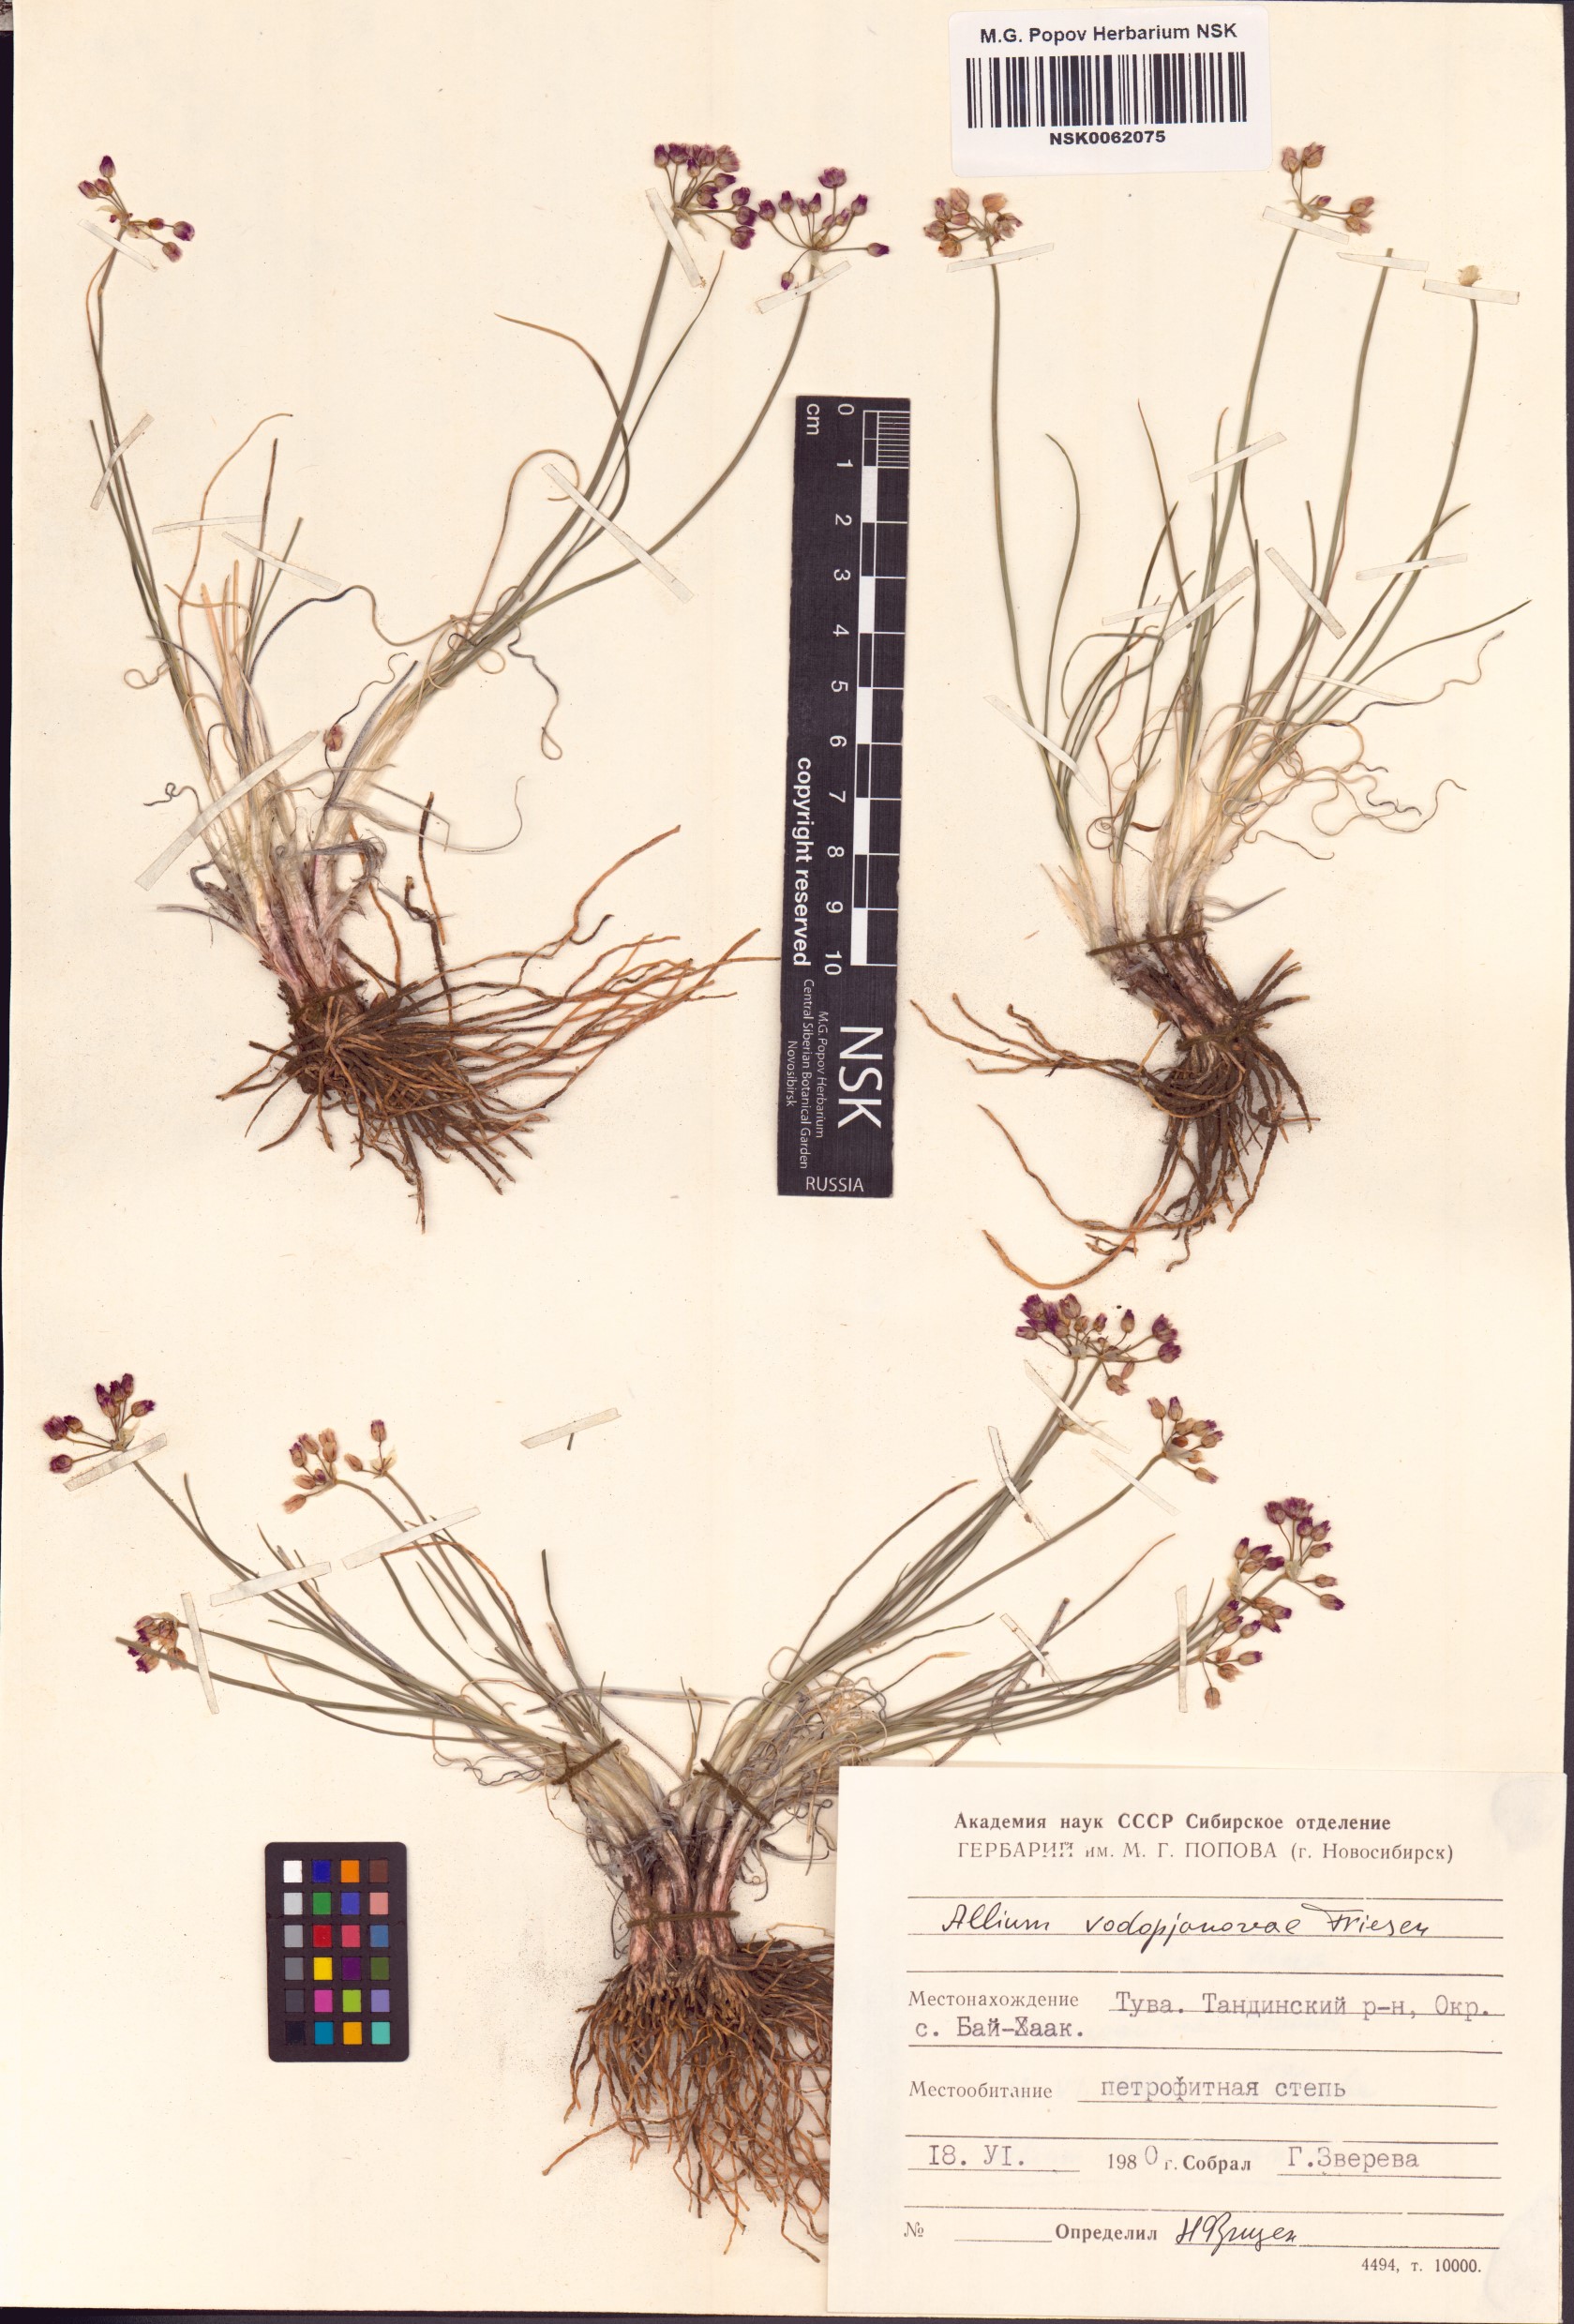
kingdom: Plantae
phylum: Tracheophyta
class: Liliopsida
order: Asparagales
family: Amaryllidaceae
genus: Allium
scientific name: Allium vodopjanovae
